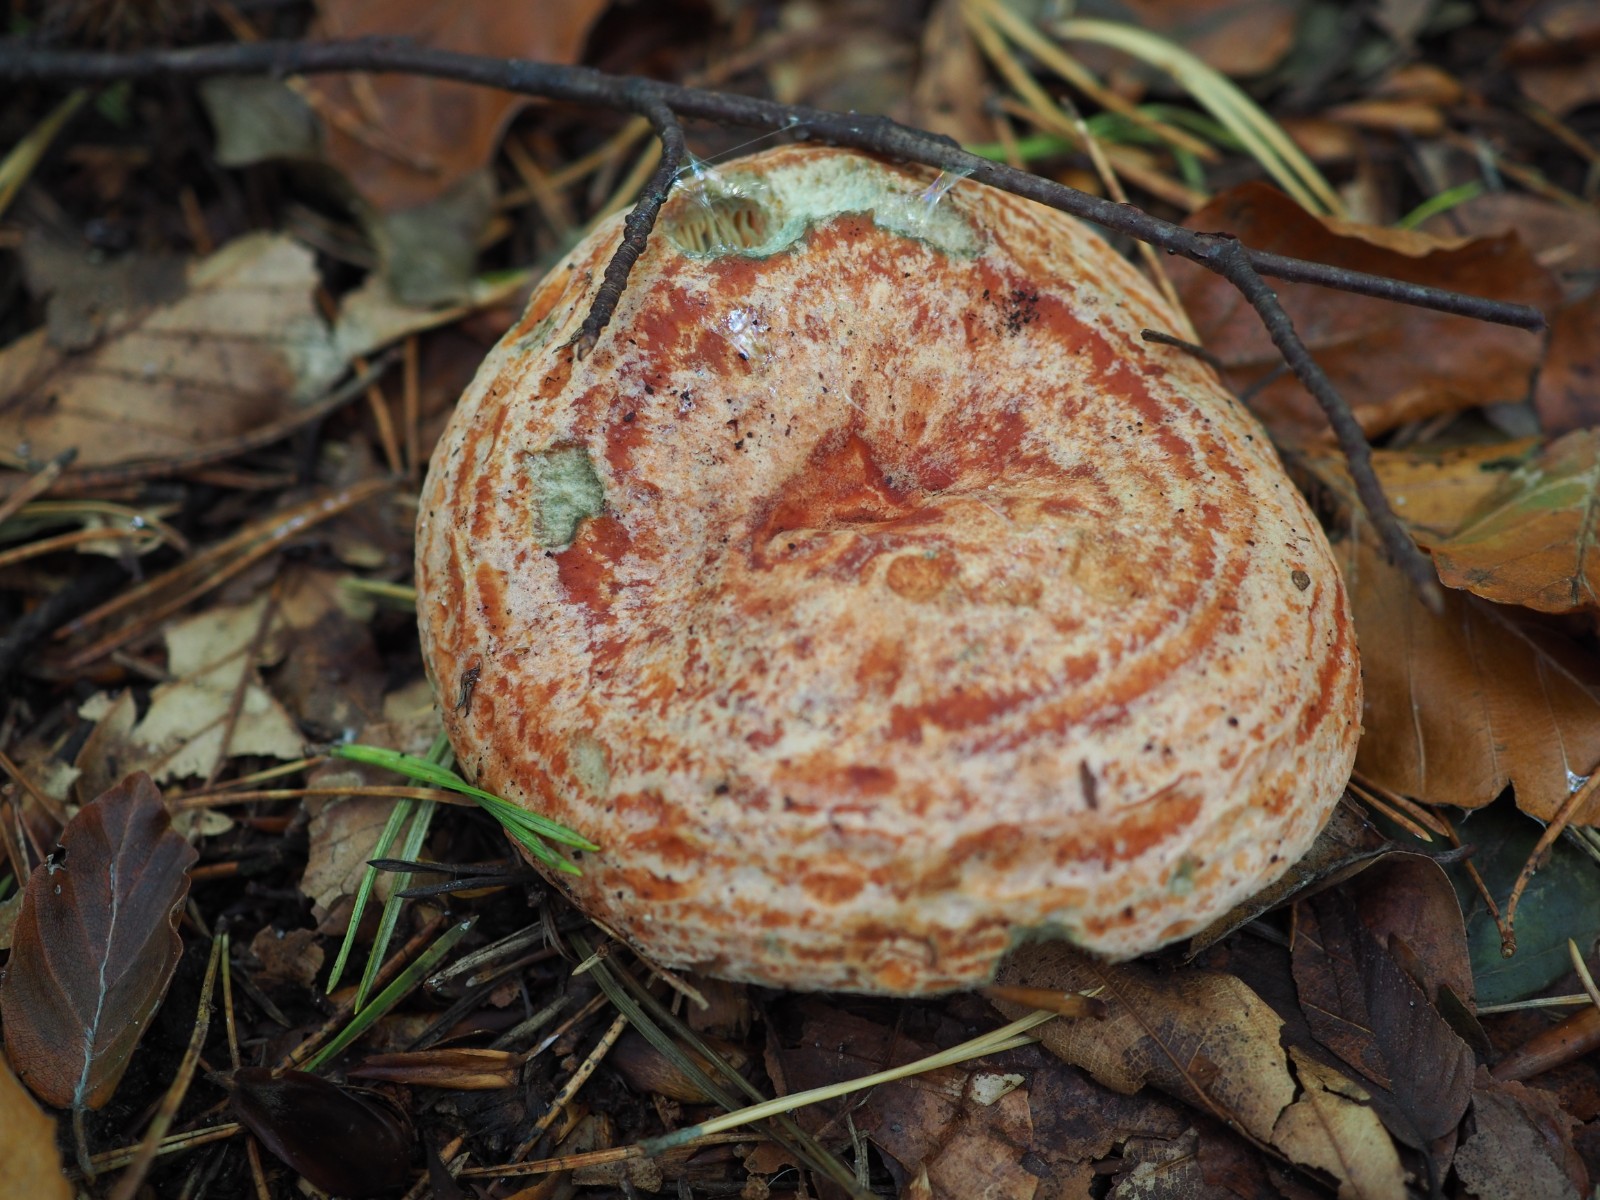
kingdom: Fungi
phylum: Basidiomycota
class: Agaricomycetes
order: Russulales
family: Russulaceae
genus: Lactarius
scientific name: Lactarius deliciosus
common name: velsmagende mælkehat
